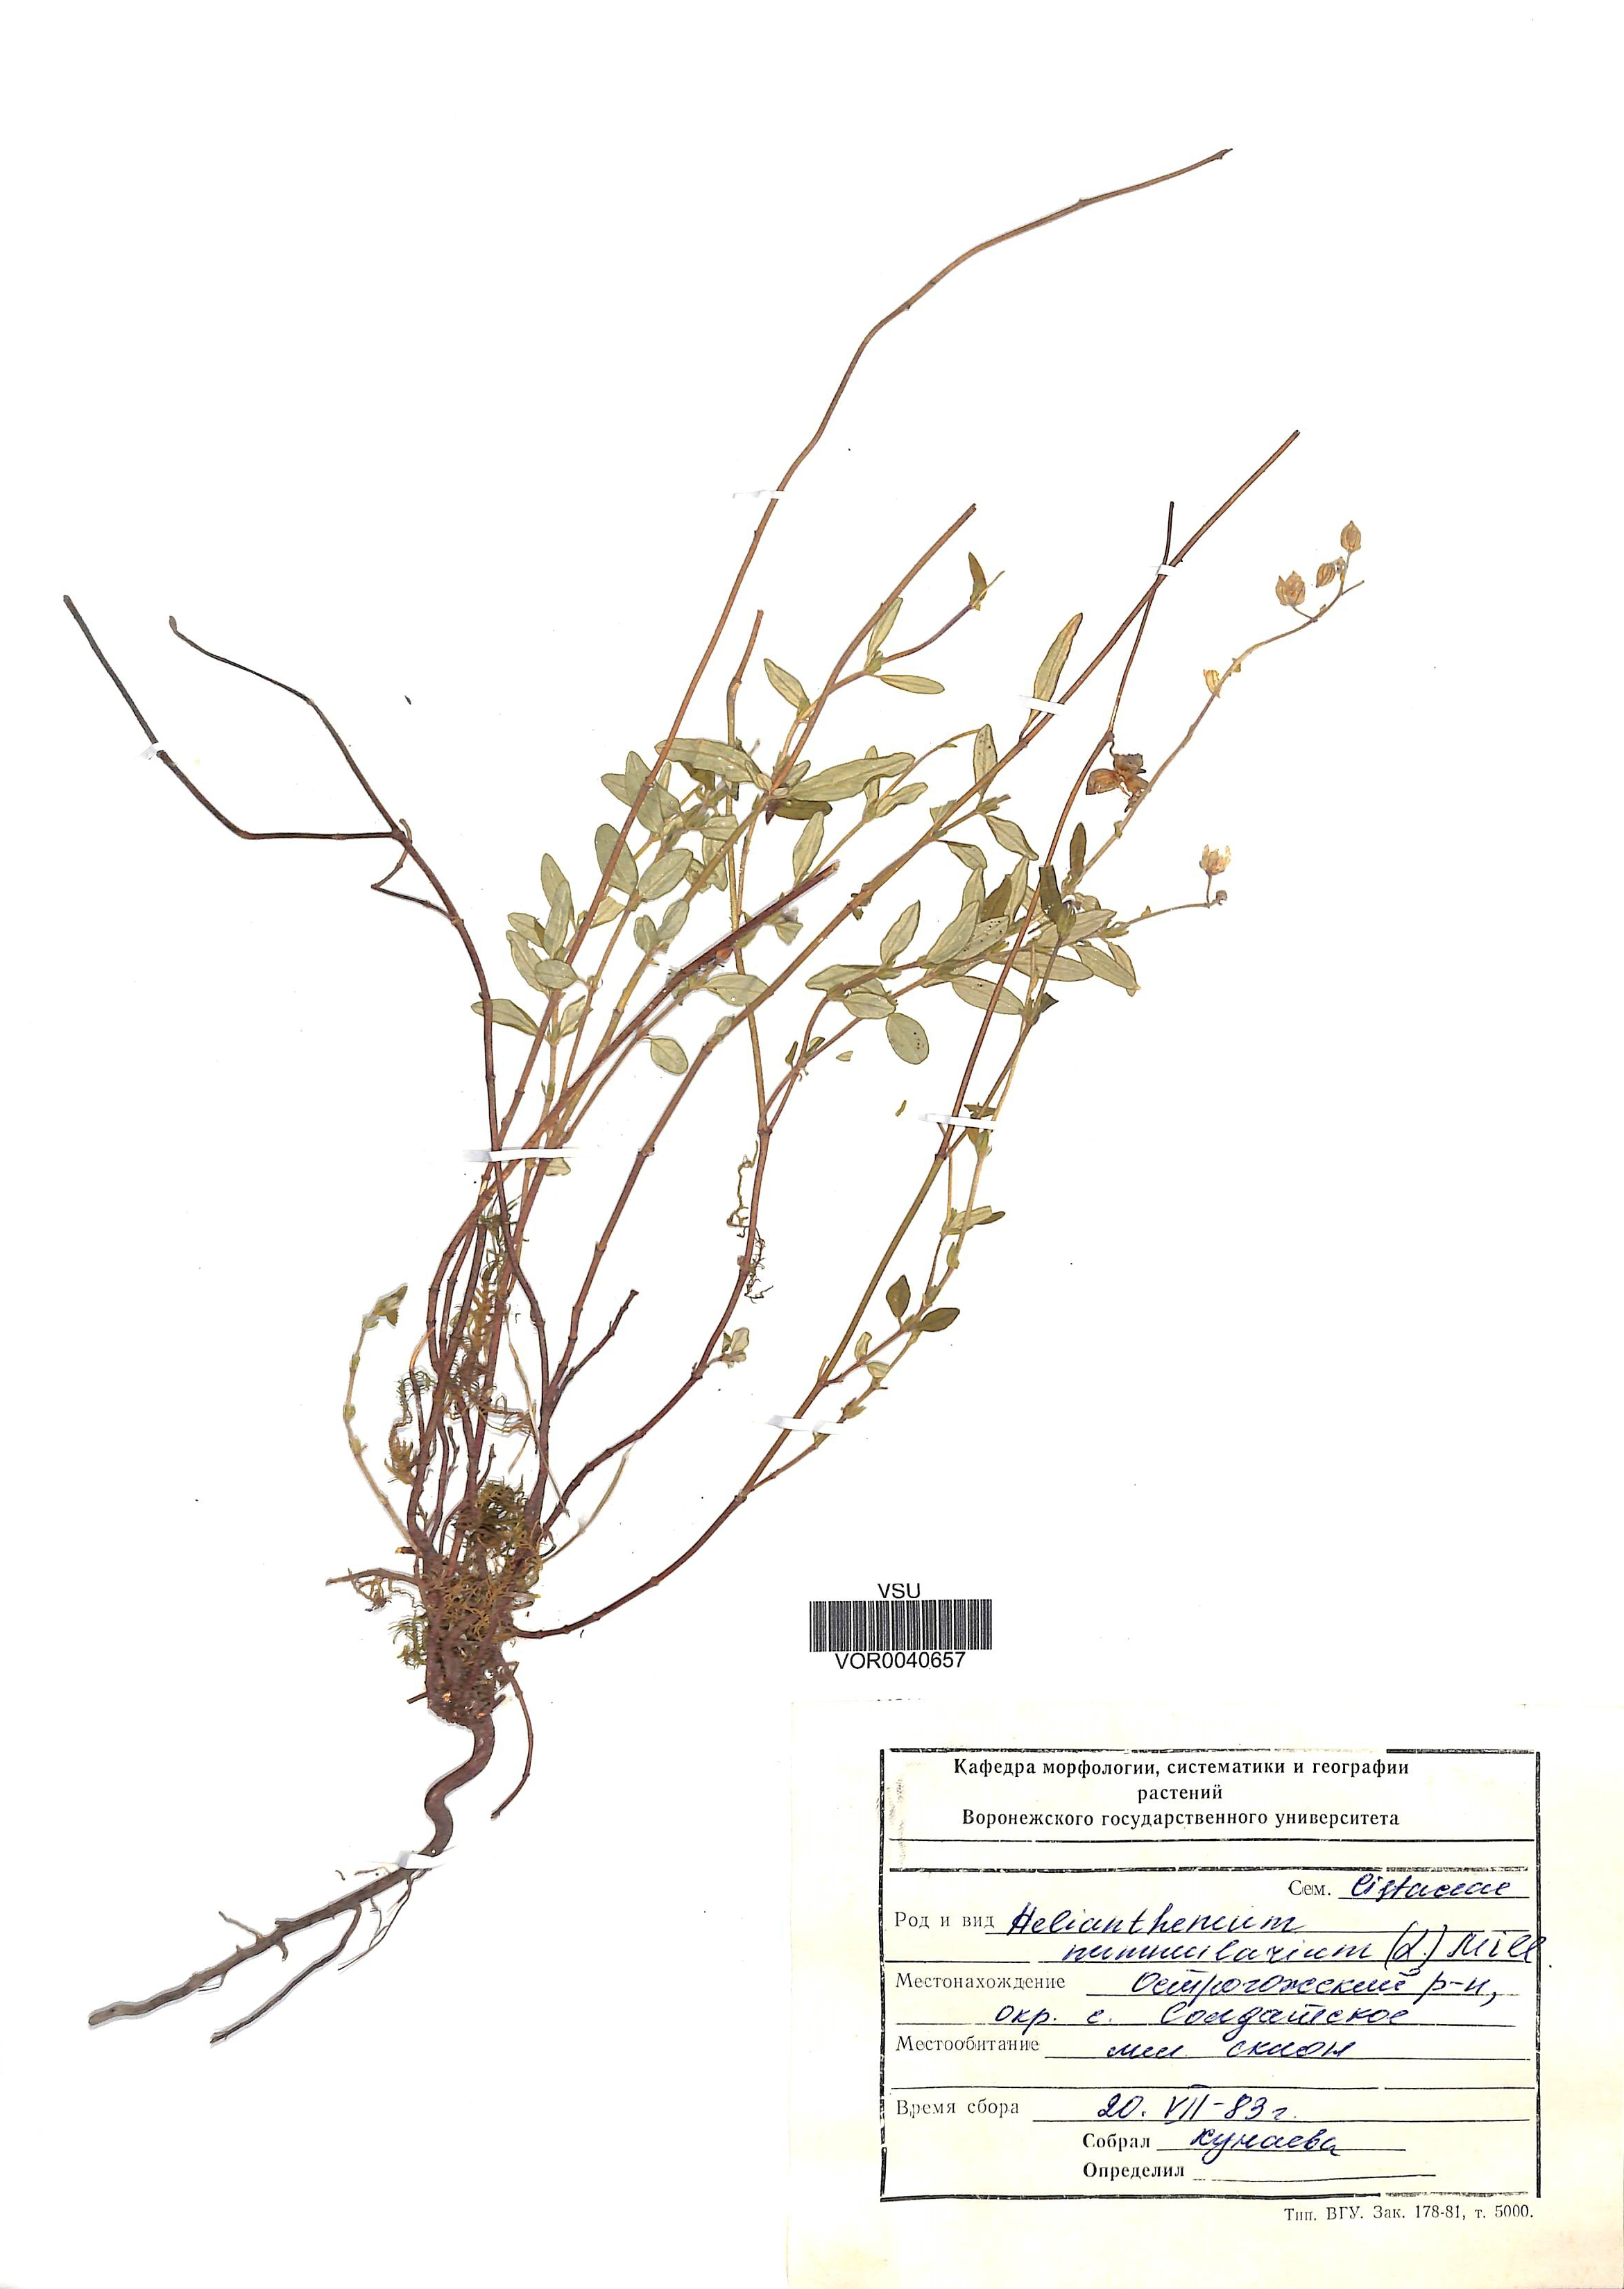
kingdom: Plantae
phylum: Tracheophyta
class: Magnoliopsida
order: Malvales
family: Cistaceae
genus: Helianthemum
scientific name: Helianthemum nummularium
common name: Common rock-rose
